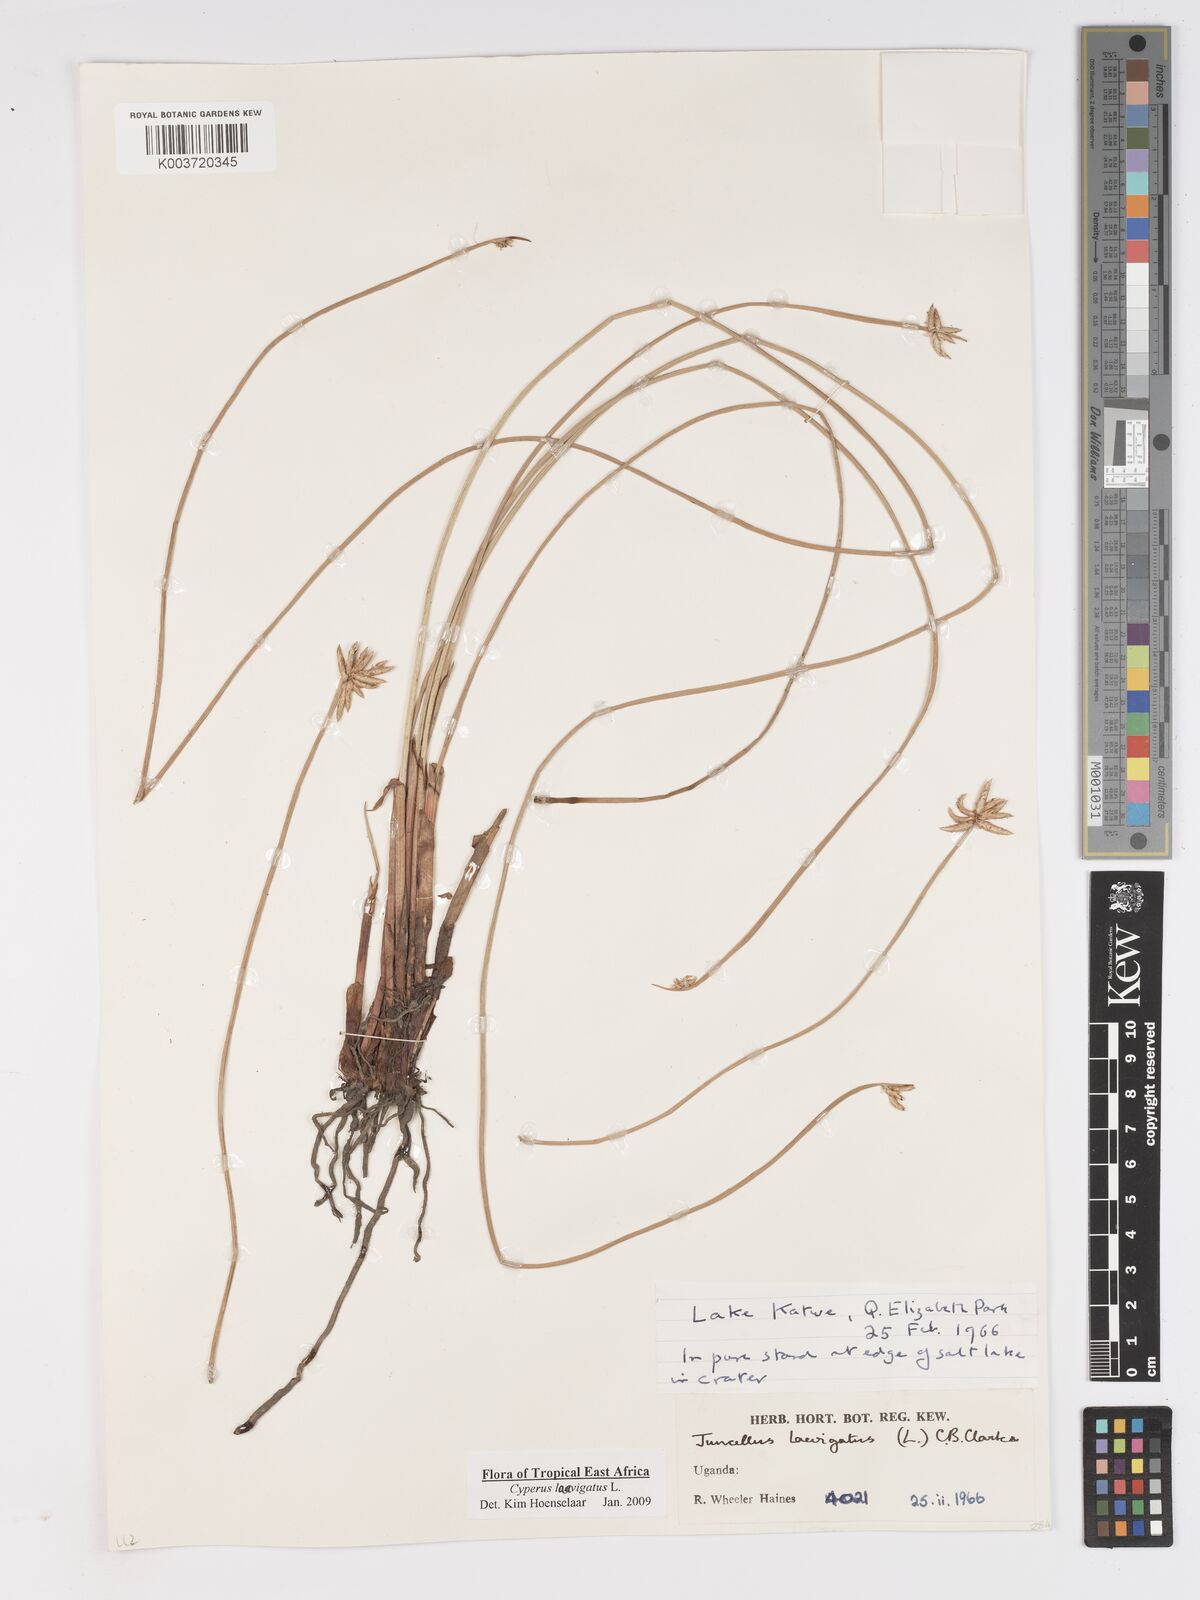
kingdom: Plantae
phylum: Tracheophyta
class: Liliopsida
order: Poales
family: Cyperaceae
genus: Cyperus
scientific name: Cyperus laevigatus
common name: Smooth flat sedge
